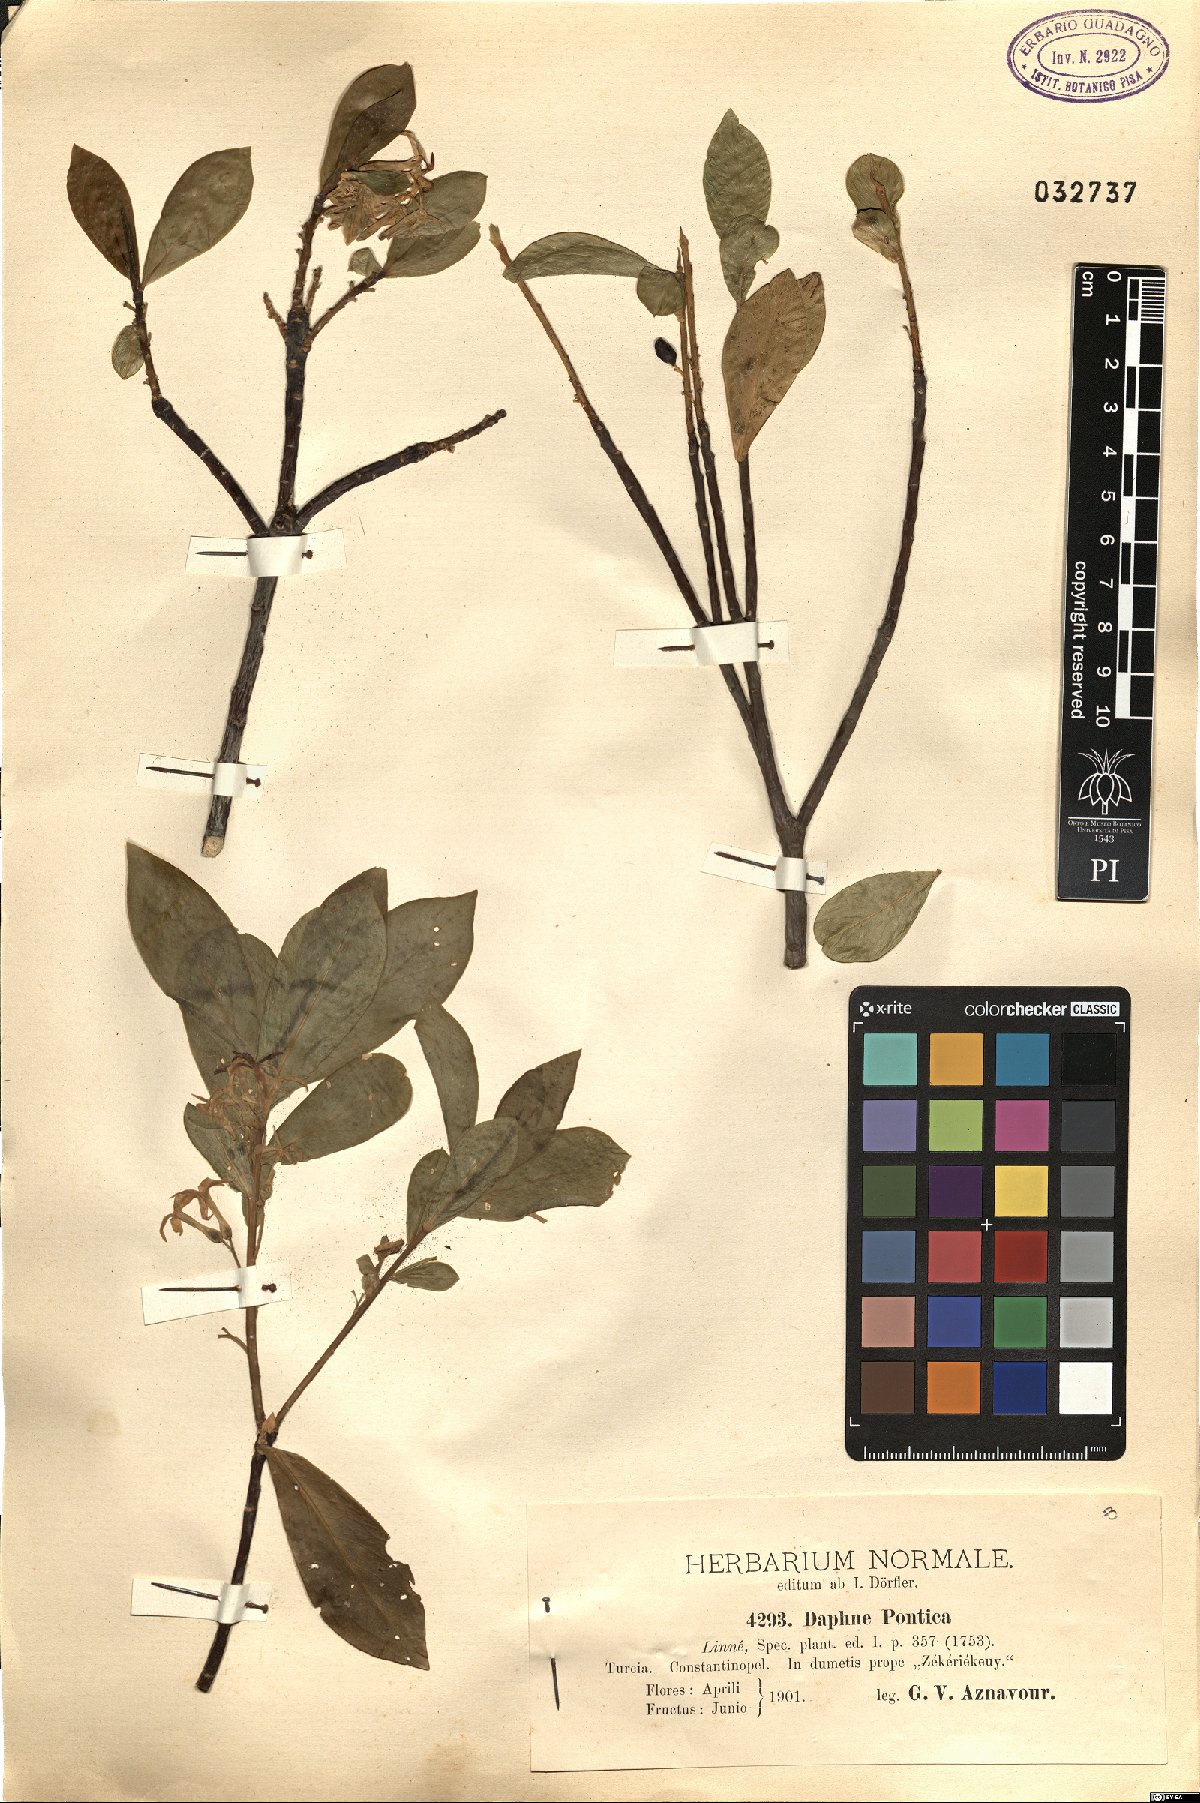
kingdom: Plantae
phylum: Tracheophyta
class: Magnoliopsida
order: Malvales
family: Thymelaeaceae
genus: Daphne
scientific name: Daphne pontica
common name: Twin-flower daphne
